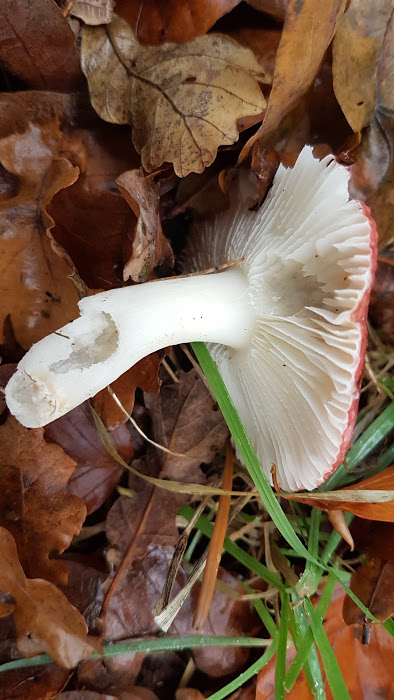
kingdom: Fungi
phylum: Basidiomycota
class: Agaricomycetes
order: Russulales
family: Russulaceae
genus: Russula
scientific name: Russula
